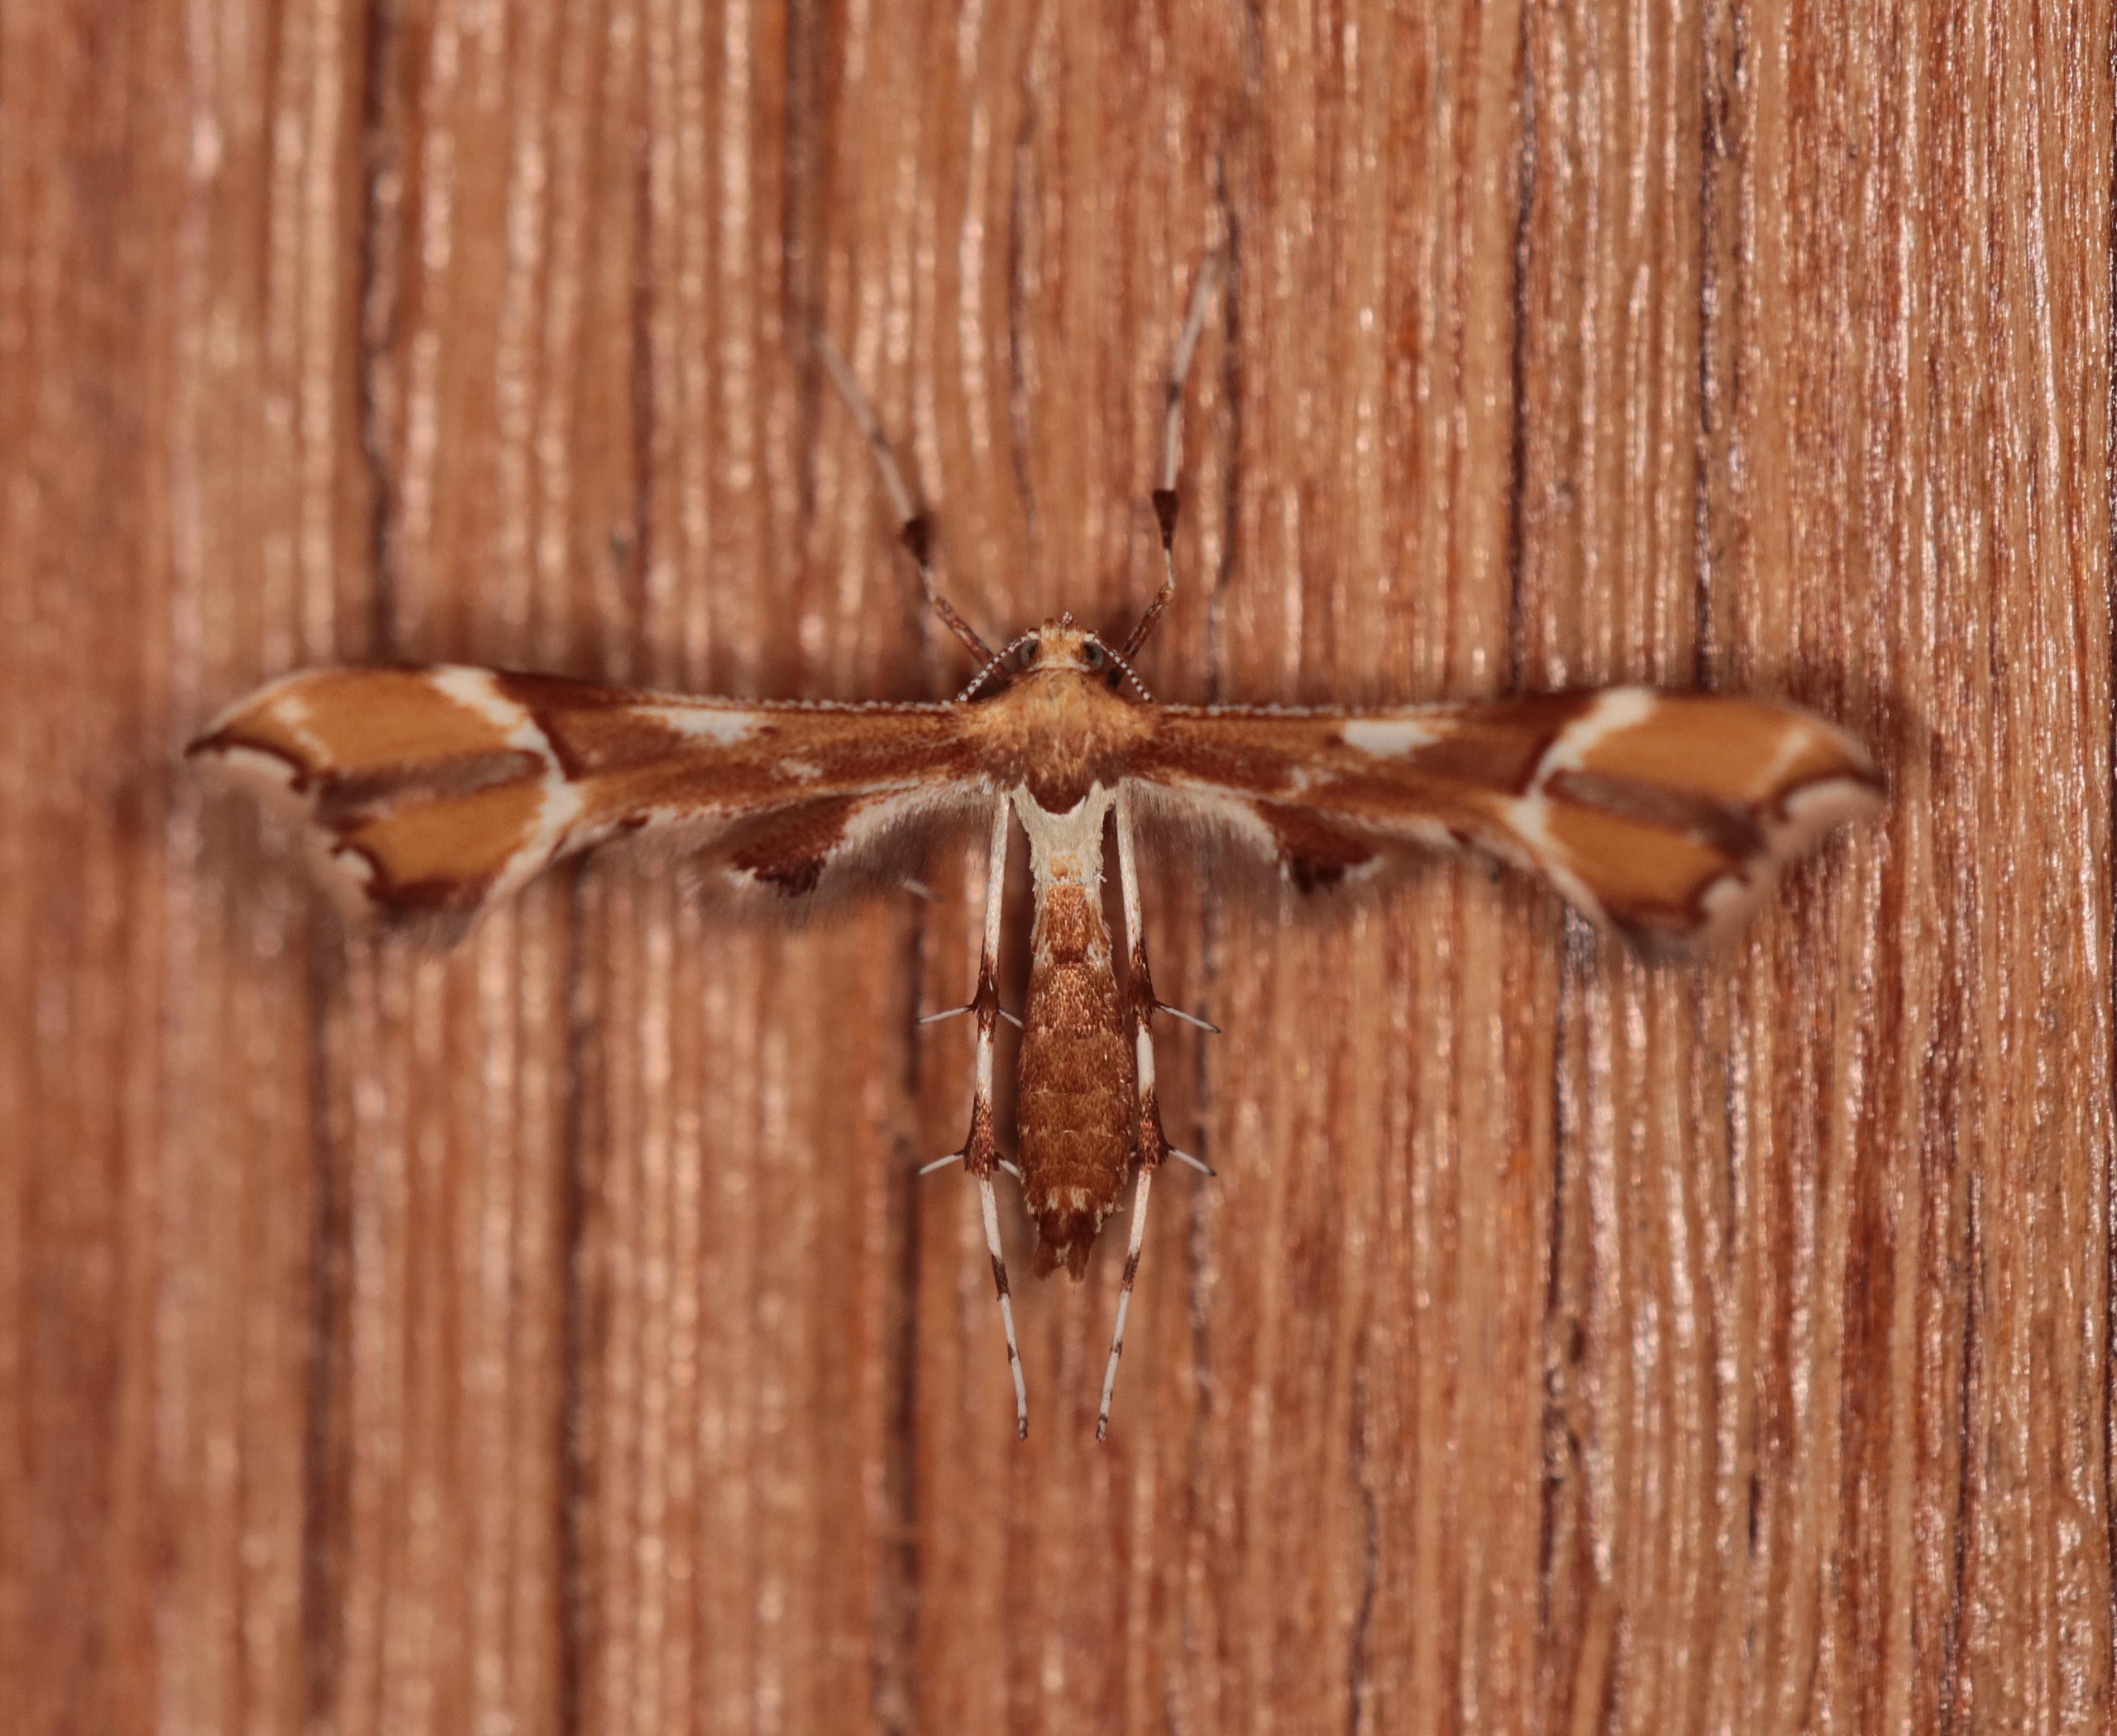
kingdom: Animalia
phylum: Arthropoda
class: Insecta
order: Lepidoptera
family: Pterophoridae
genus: Cnaemidophorus
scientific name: Cnaemidophorus rhododactyla
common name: Rosenknopfjermøl
